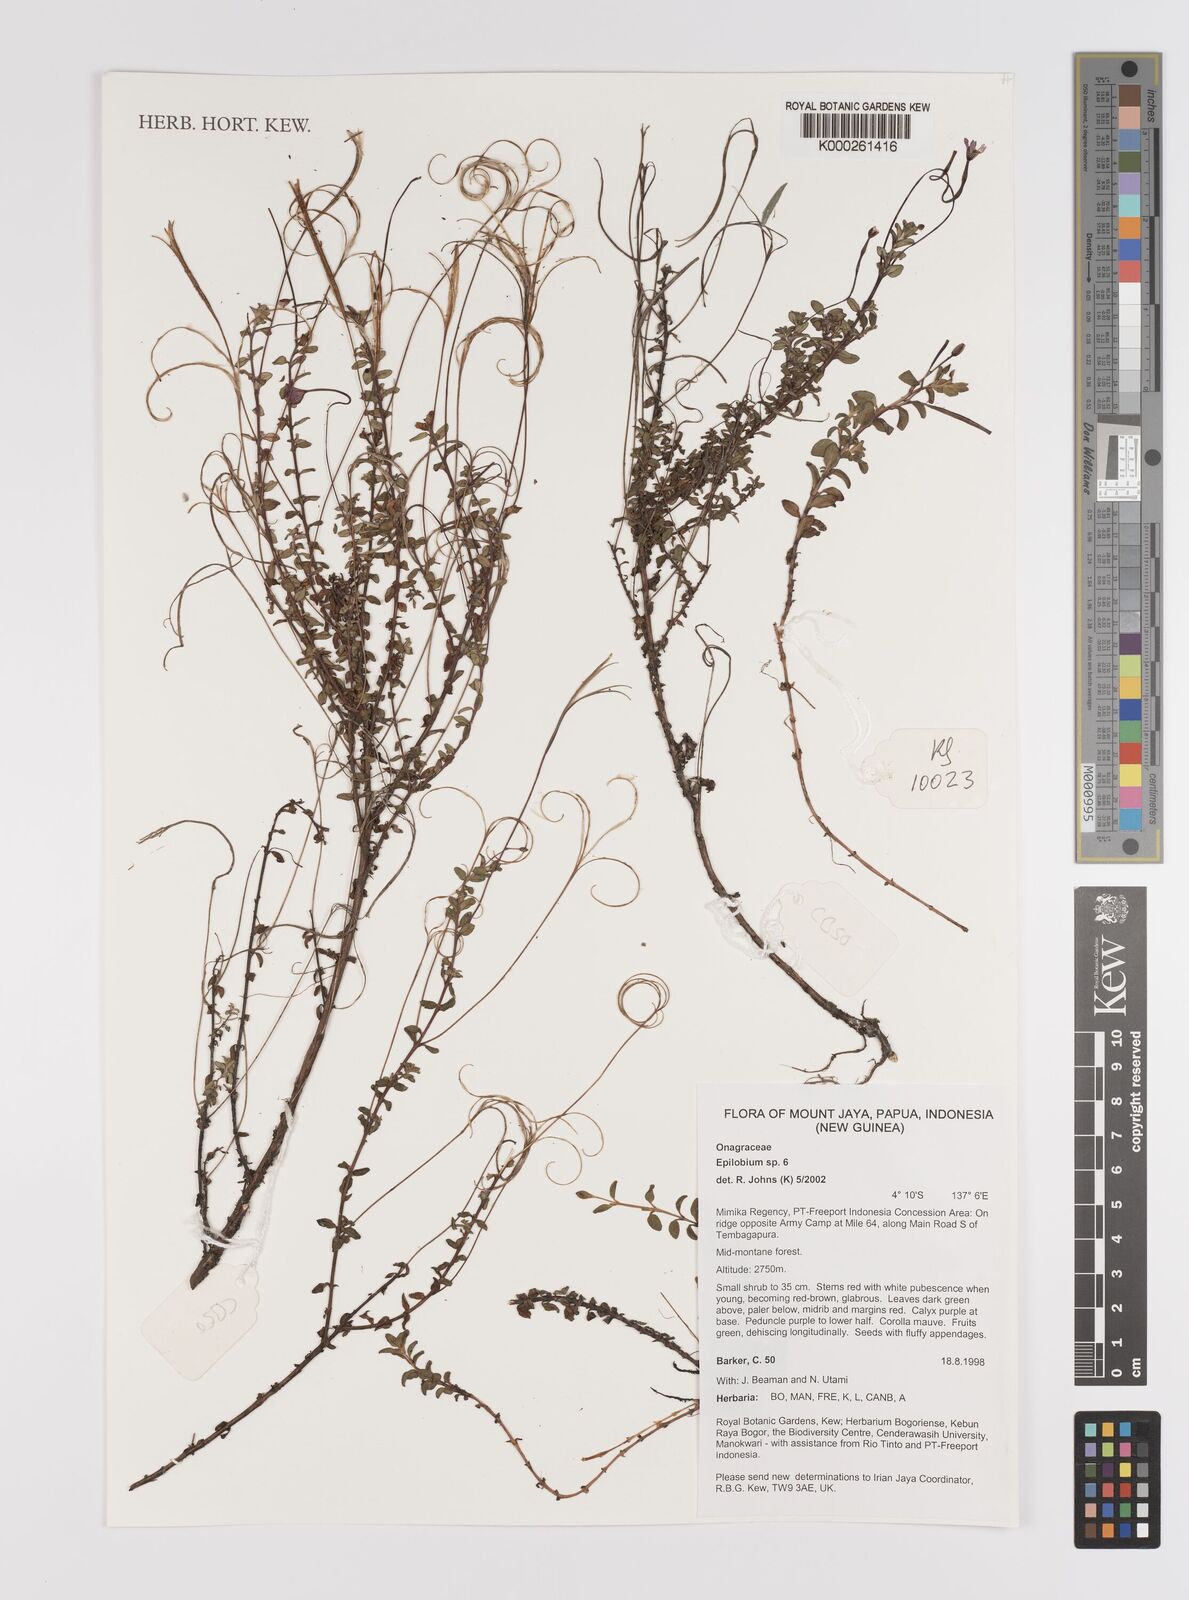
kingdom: Plantae
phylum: Tracheophyta
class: Magnoliopsida
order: Myrtales
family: Onagraceae
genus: Epilobium
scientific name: Epilobium
